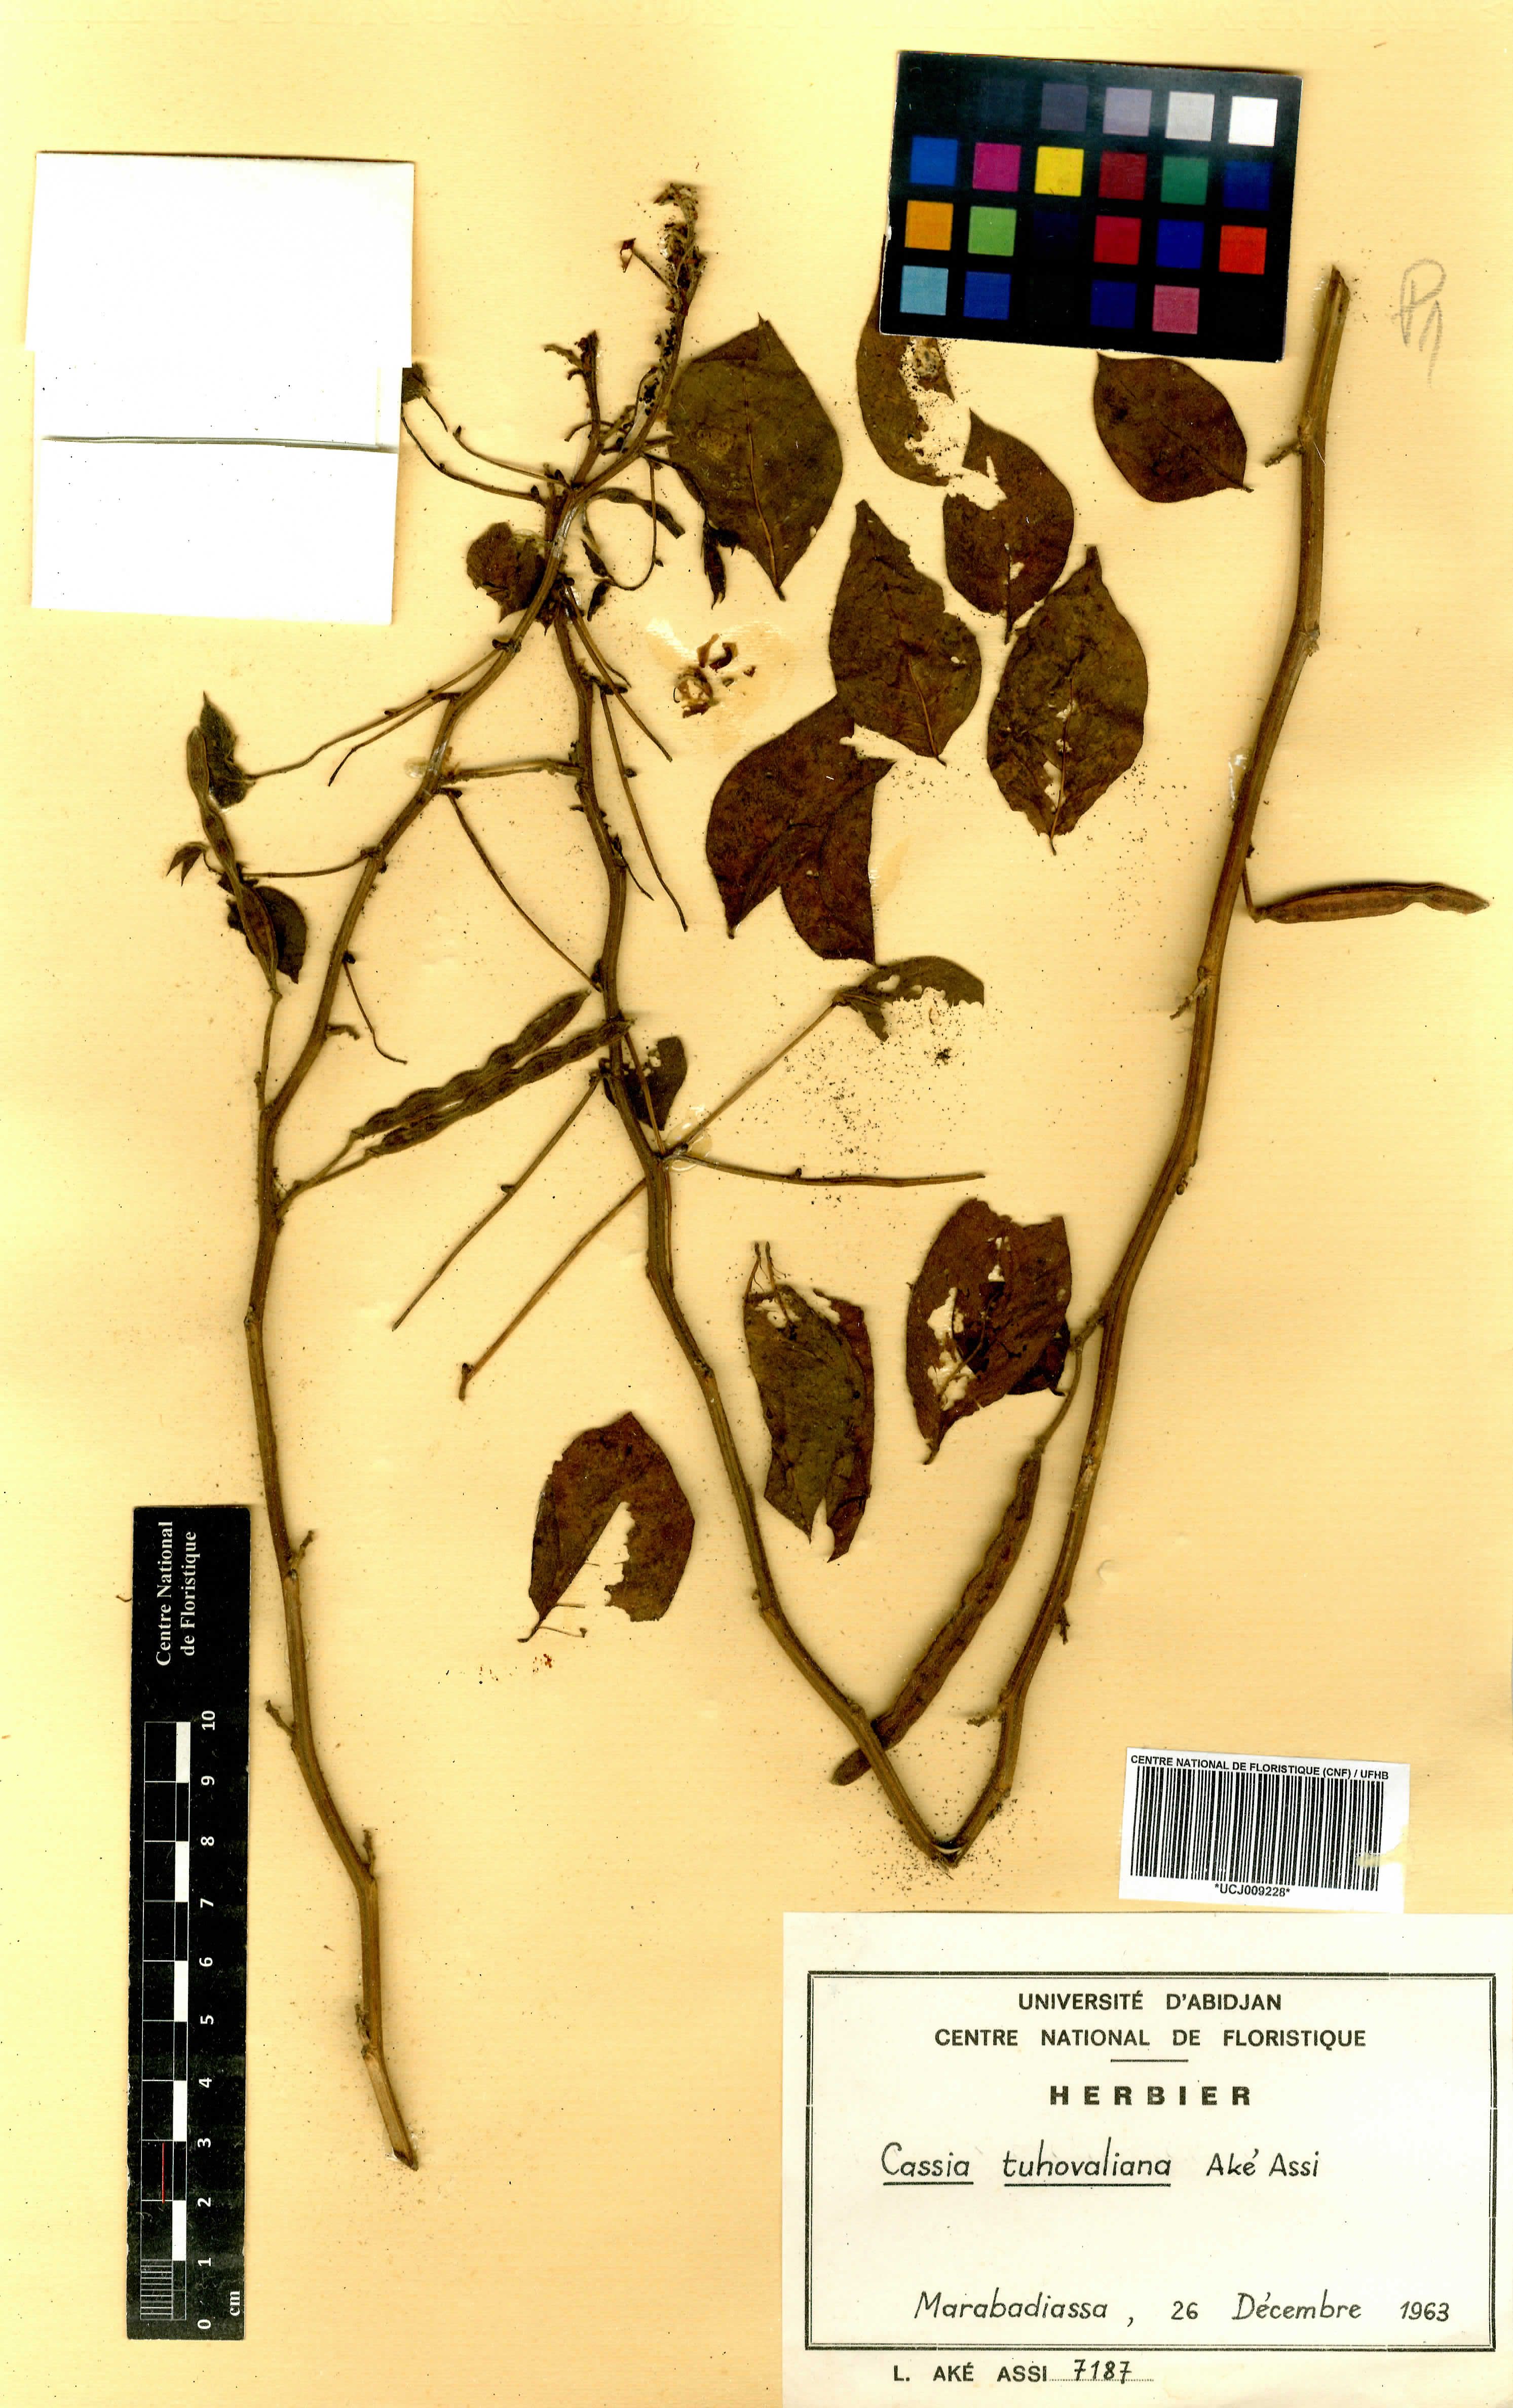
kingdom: Plantae
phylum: Tracheophyta
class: Magnoliopsida
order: Fabales
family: Fabaceae
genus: Senna
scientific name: Senna tuhovalyana
